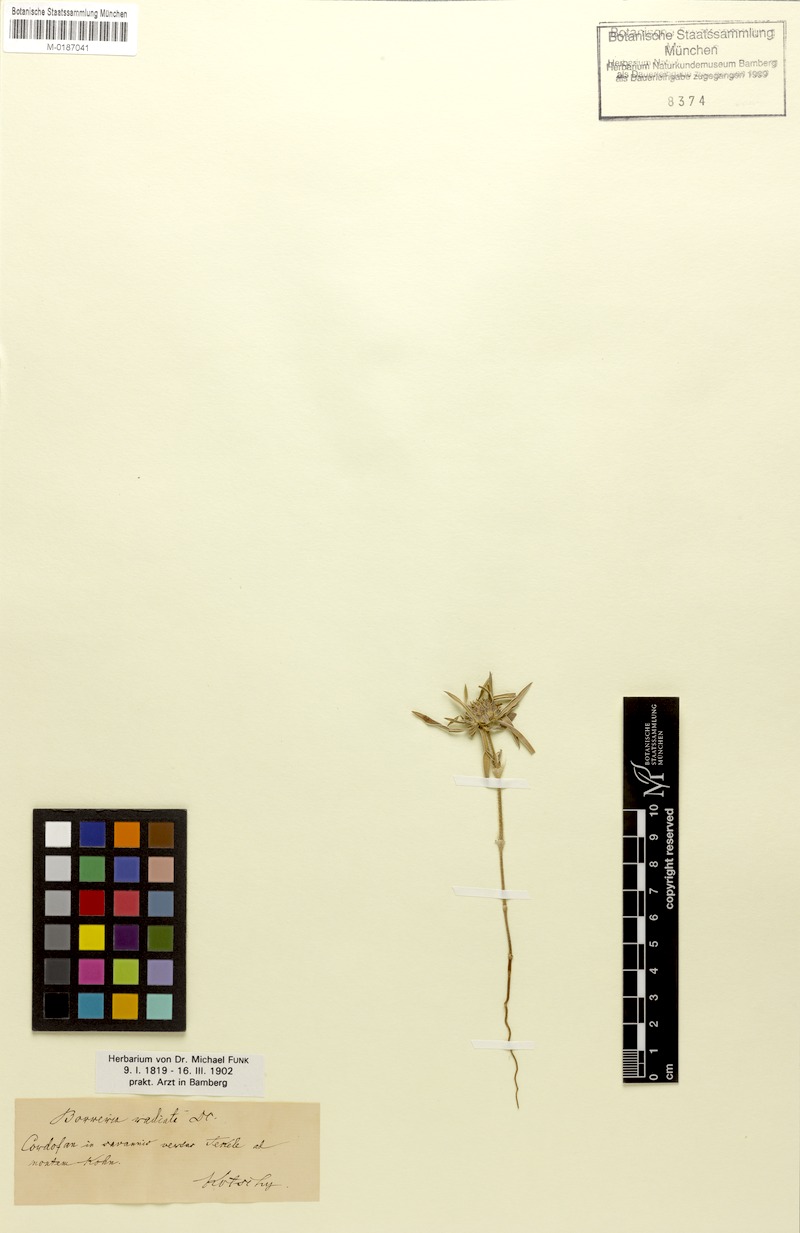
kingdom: Plantae
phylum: Tracheophyta
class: Magnoliopsida
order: Gentianales
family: Rubiaceae
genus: Spermacoce
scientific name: Spermacoce radiata
